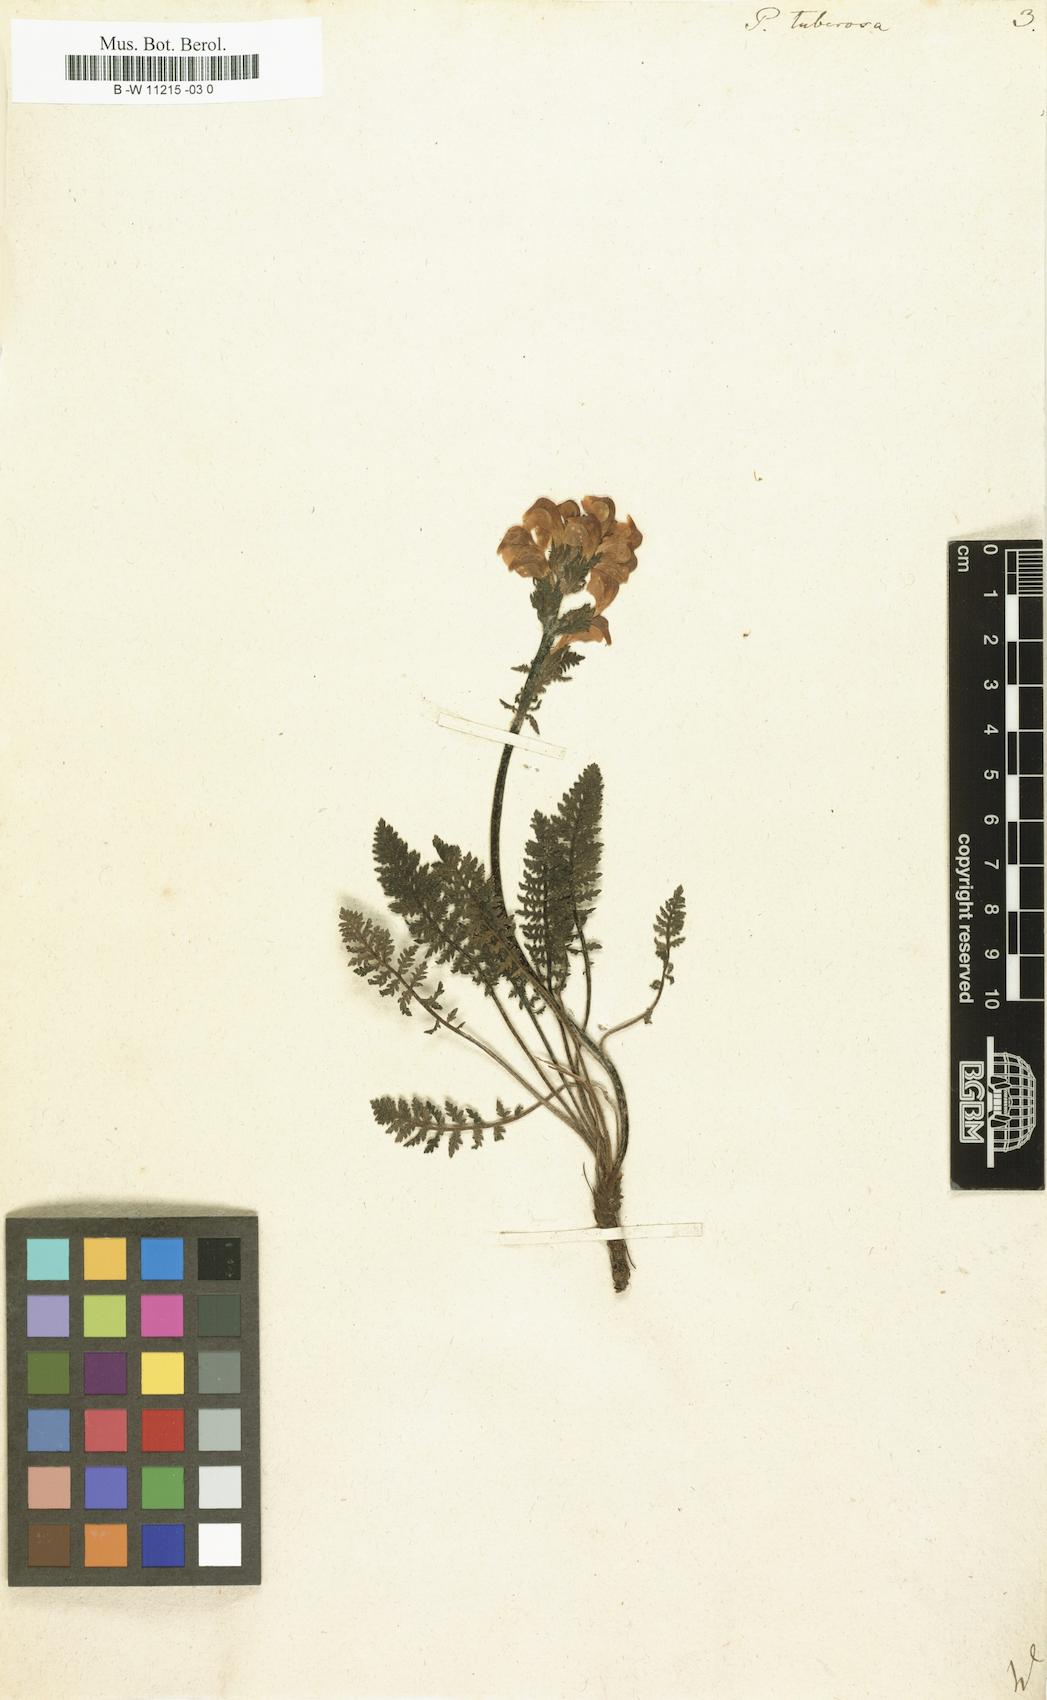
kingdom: Plantae
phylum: Tracheophyta
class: Magnoliopsida
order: Lamiales
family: Orobanchaceae
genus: Pedicularis
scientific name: Pedicularis tuberosa
